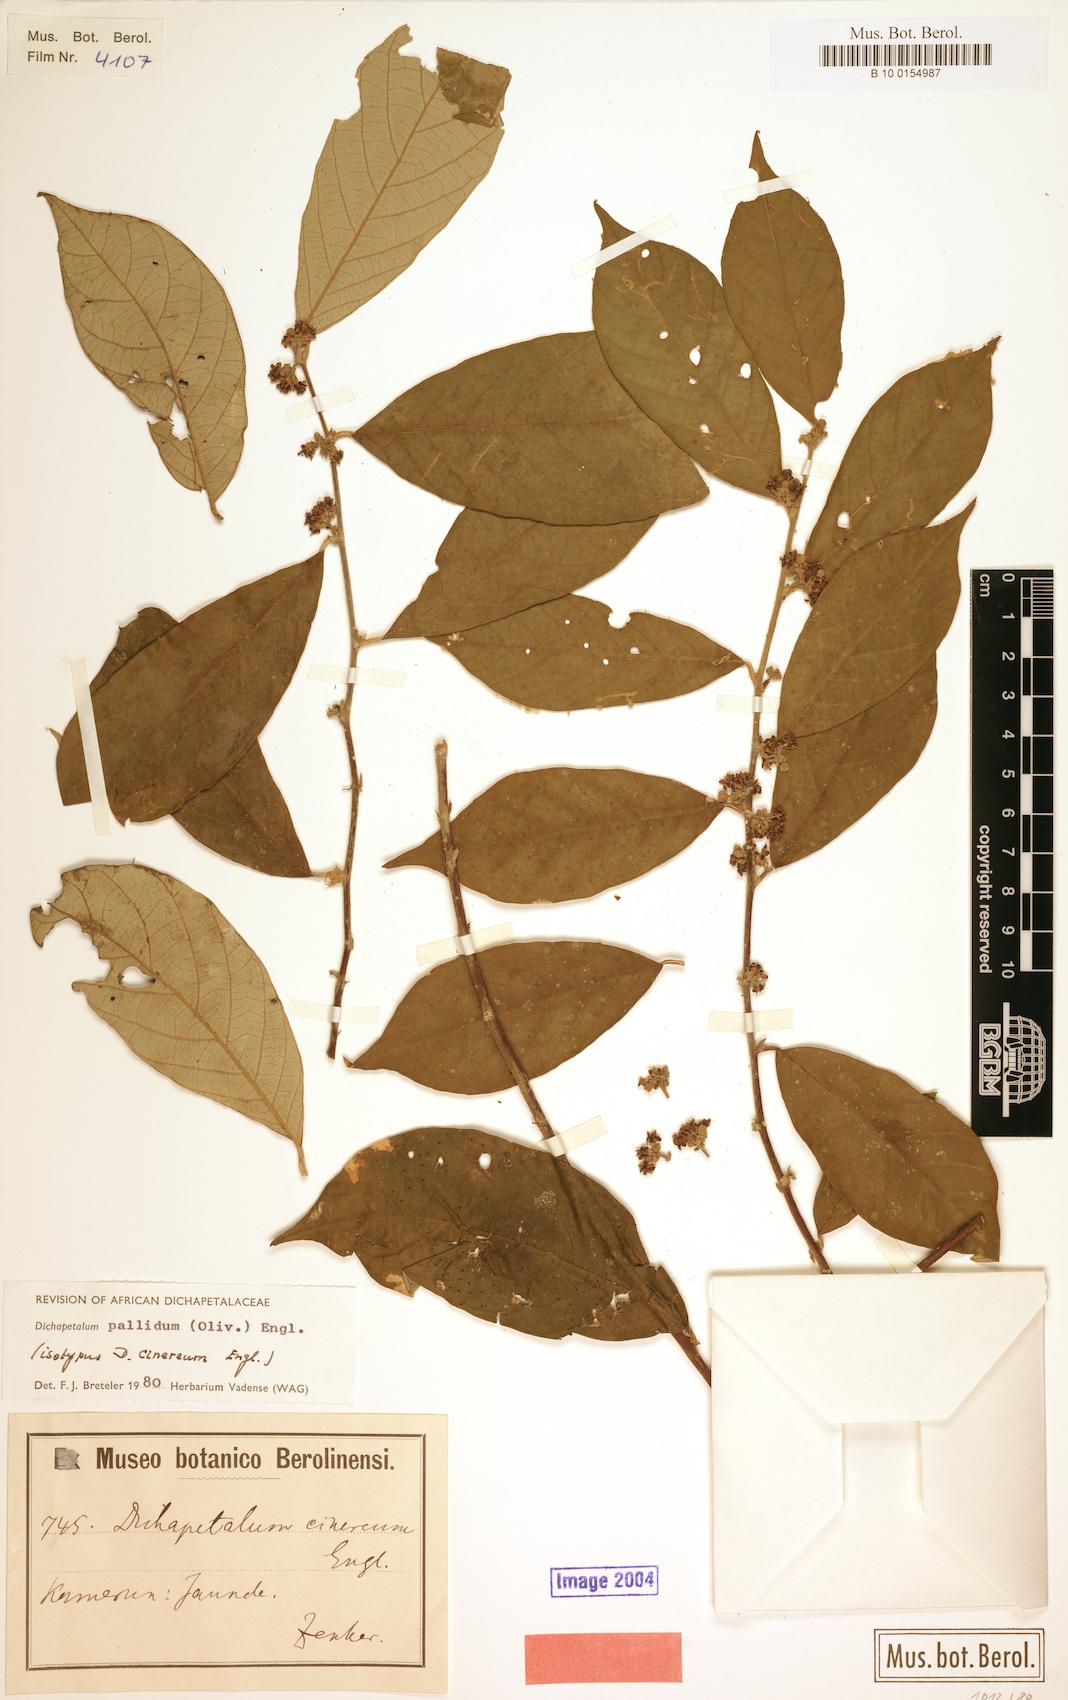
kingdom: Plantae
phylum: Tracheophyta
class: Magnoliopsida
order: Malpighiales
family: Dichapetalaceae
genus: Dichapetalum
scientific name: Dichapetalum pallidum
